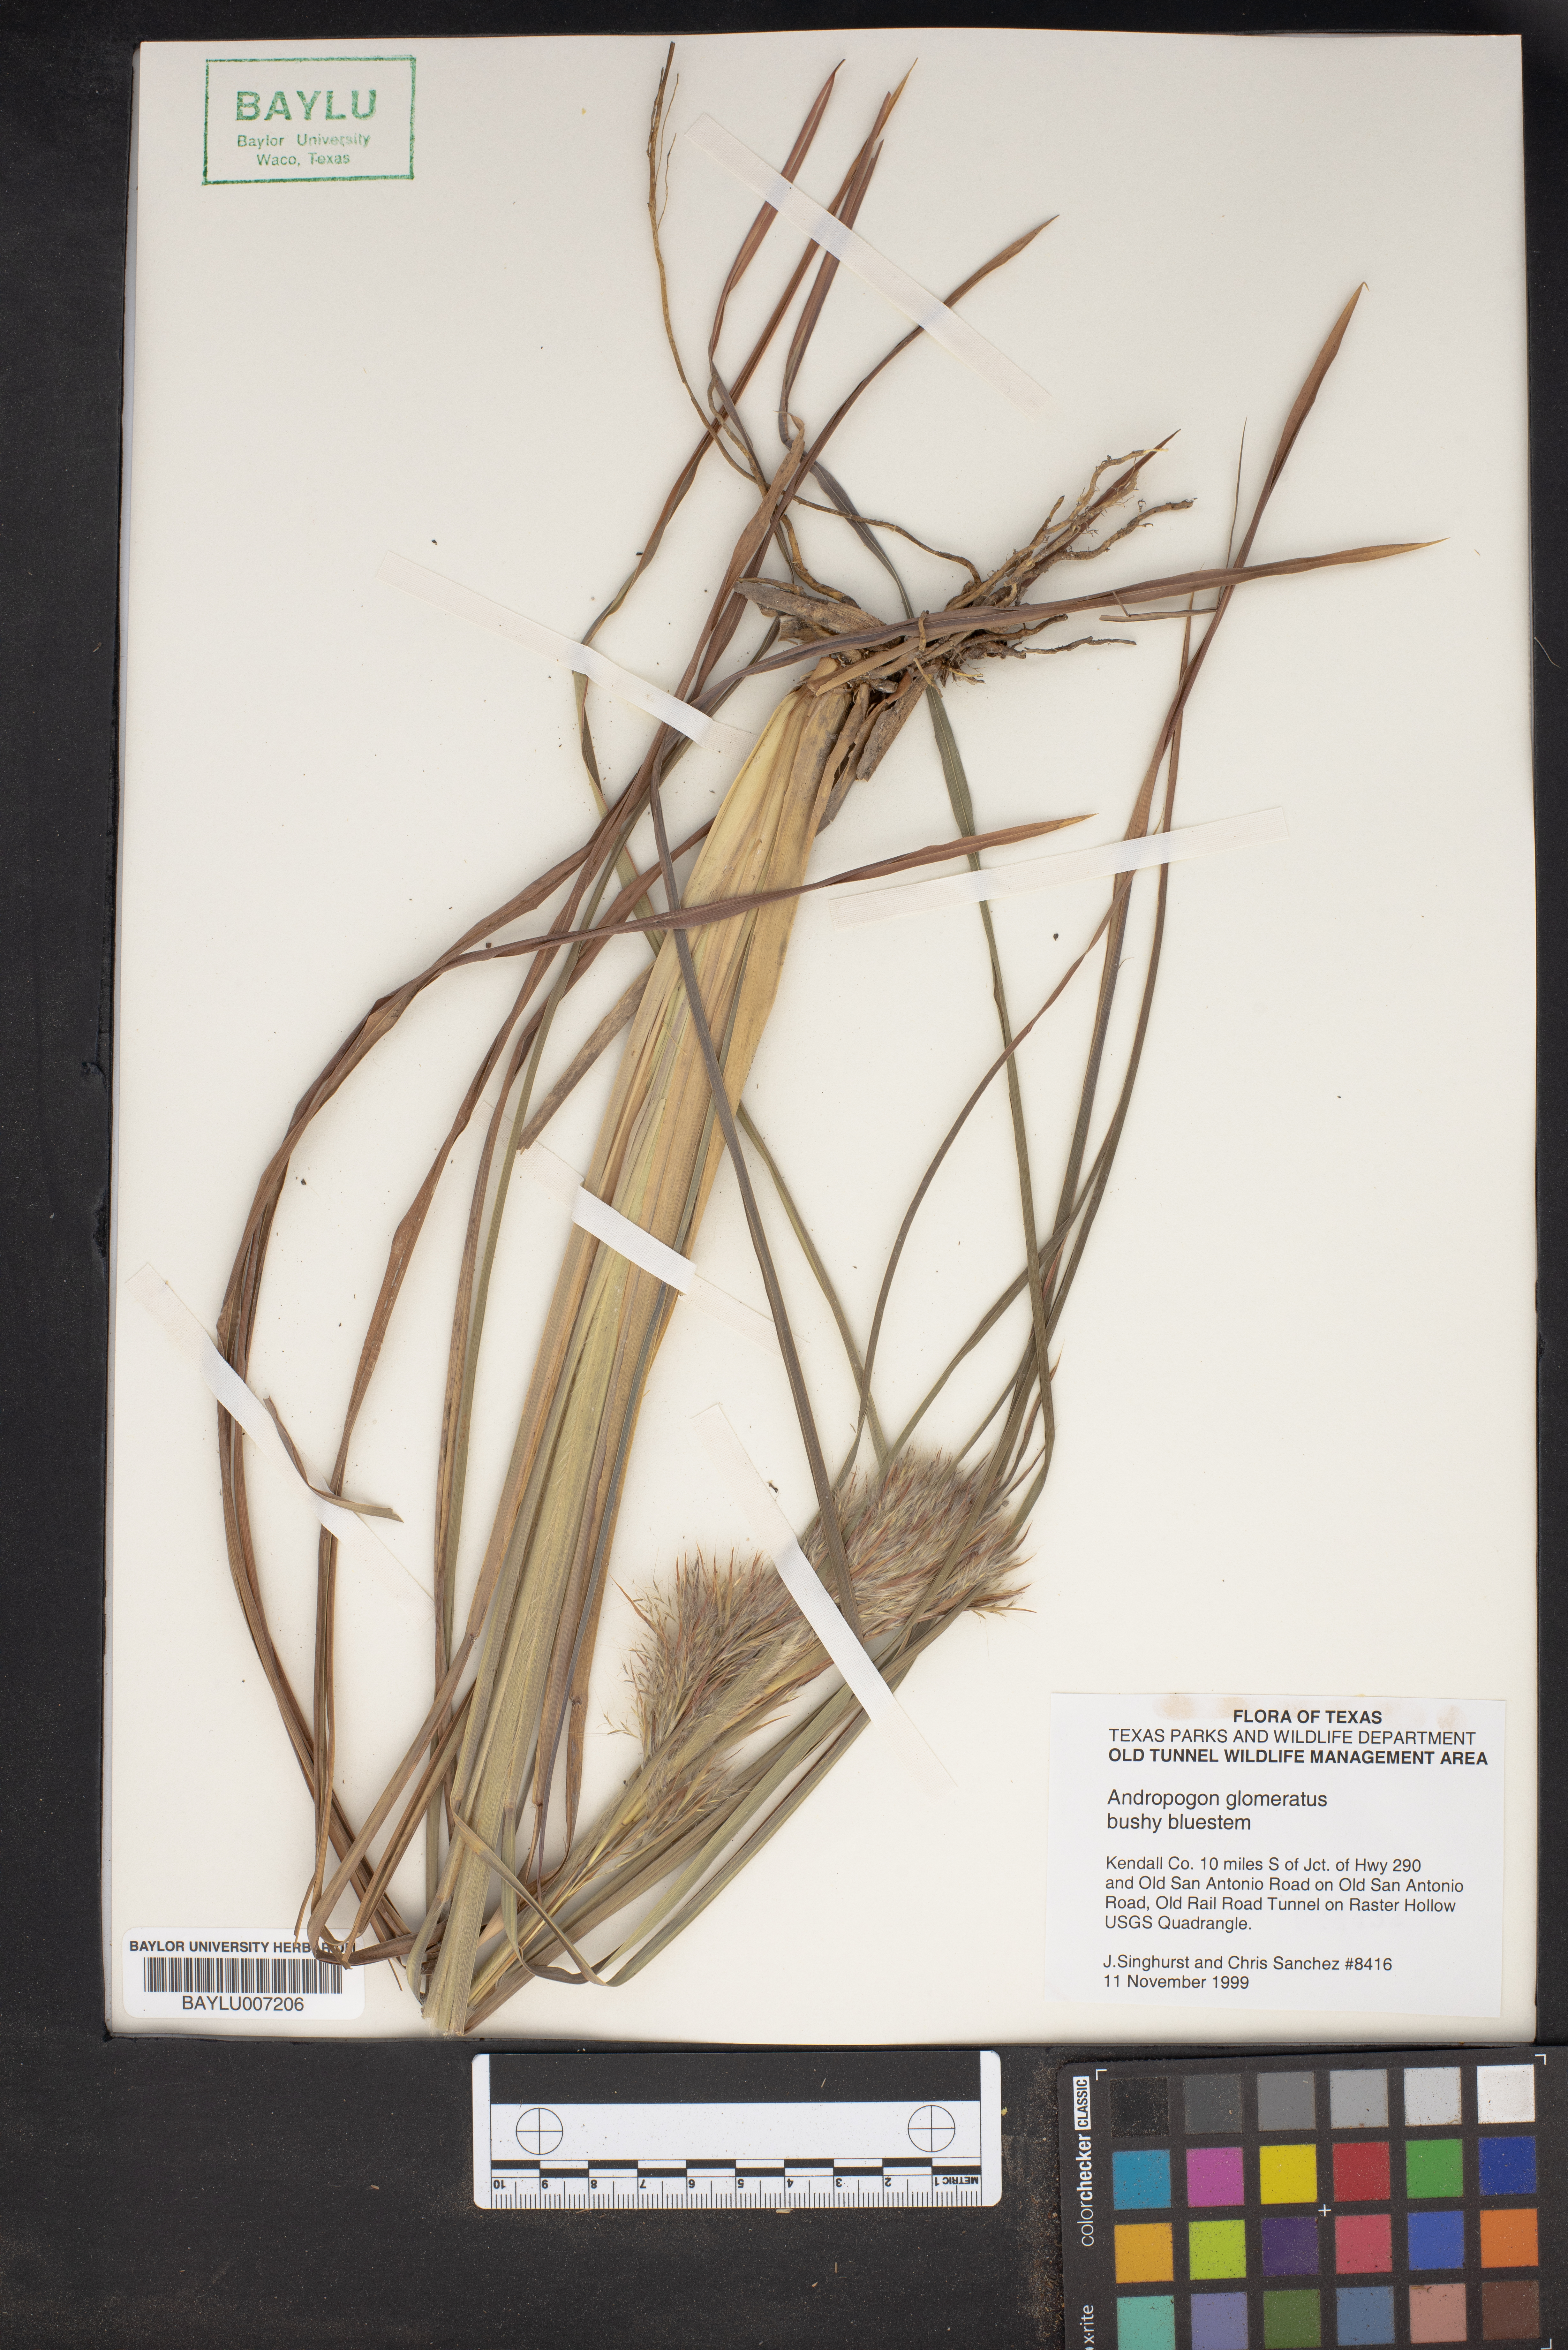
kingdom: Plantae
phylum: Tracheophyta
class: Liliopsida
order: Poales
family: Poaceae
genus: Andropogon
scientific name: Andropogon glomeratus
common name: Bushy beard grass
